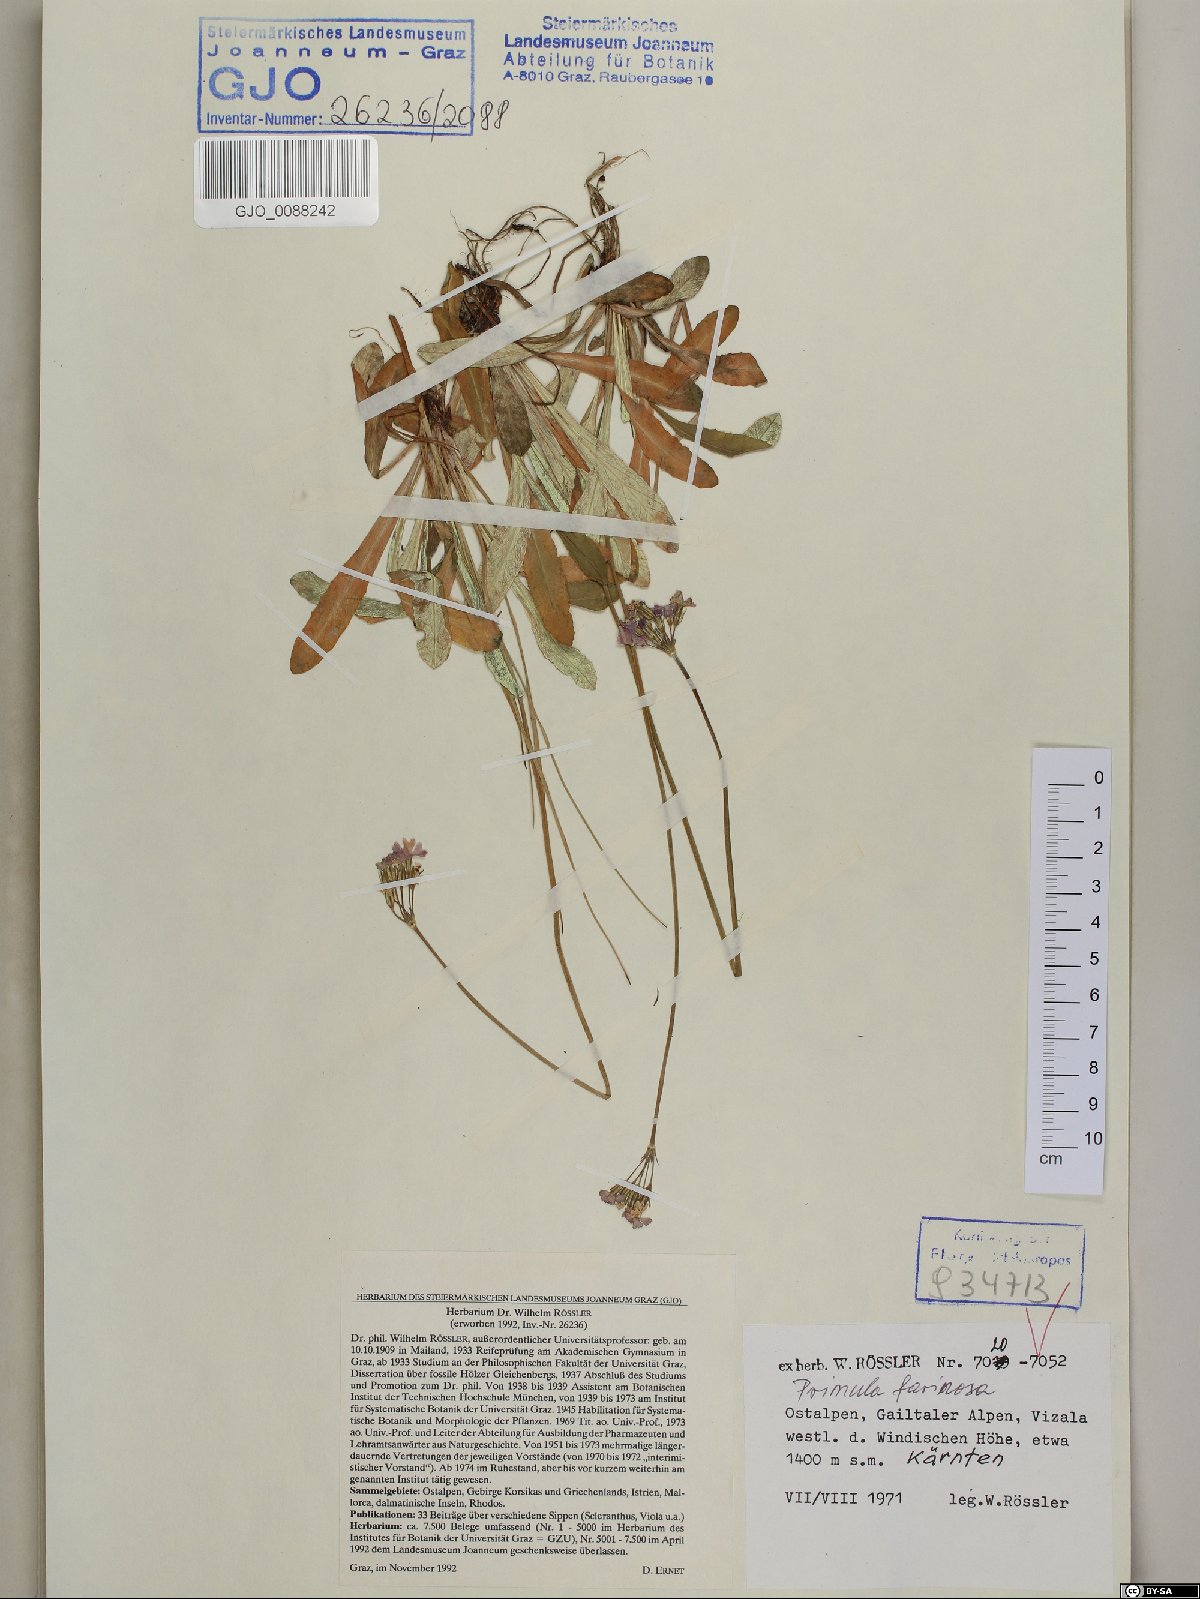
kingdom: Plantae
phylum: Tracheophyta
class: Magnoliopsida
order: Ericales
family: Primulaceae
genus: Primula
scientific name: Primula farinosa
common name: Bird's-eye primrose
